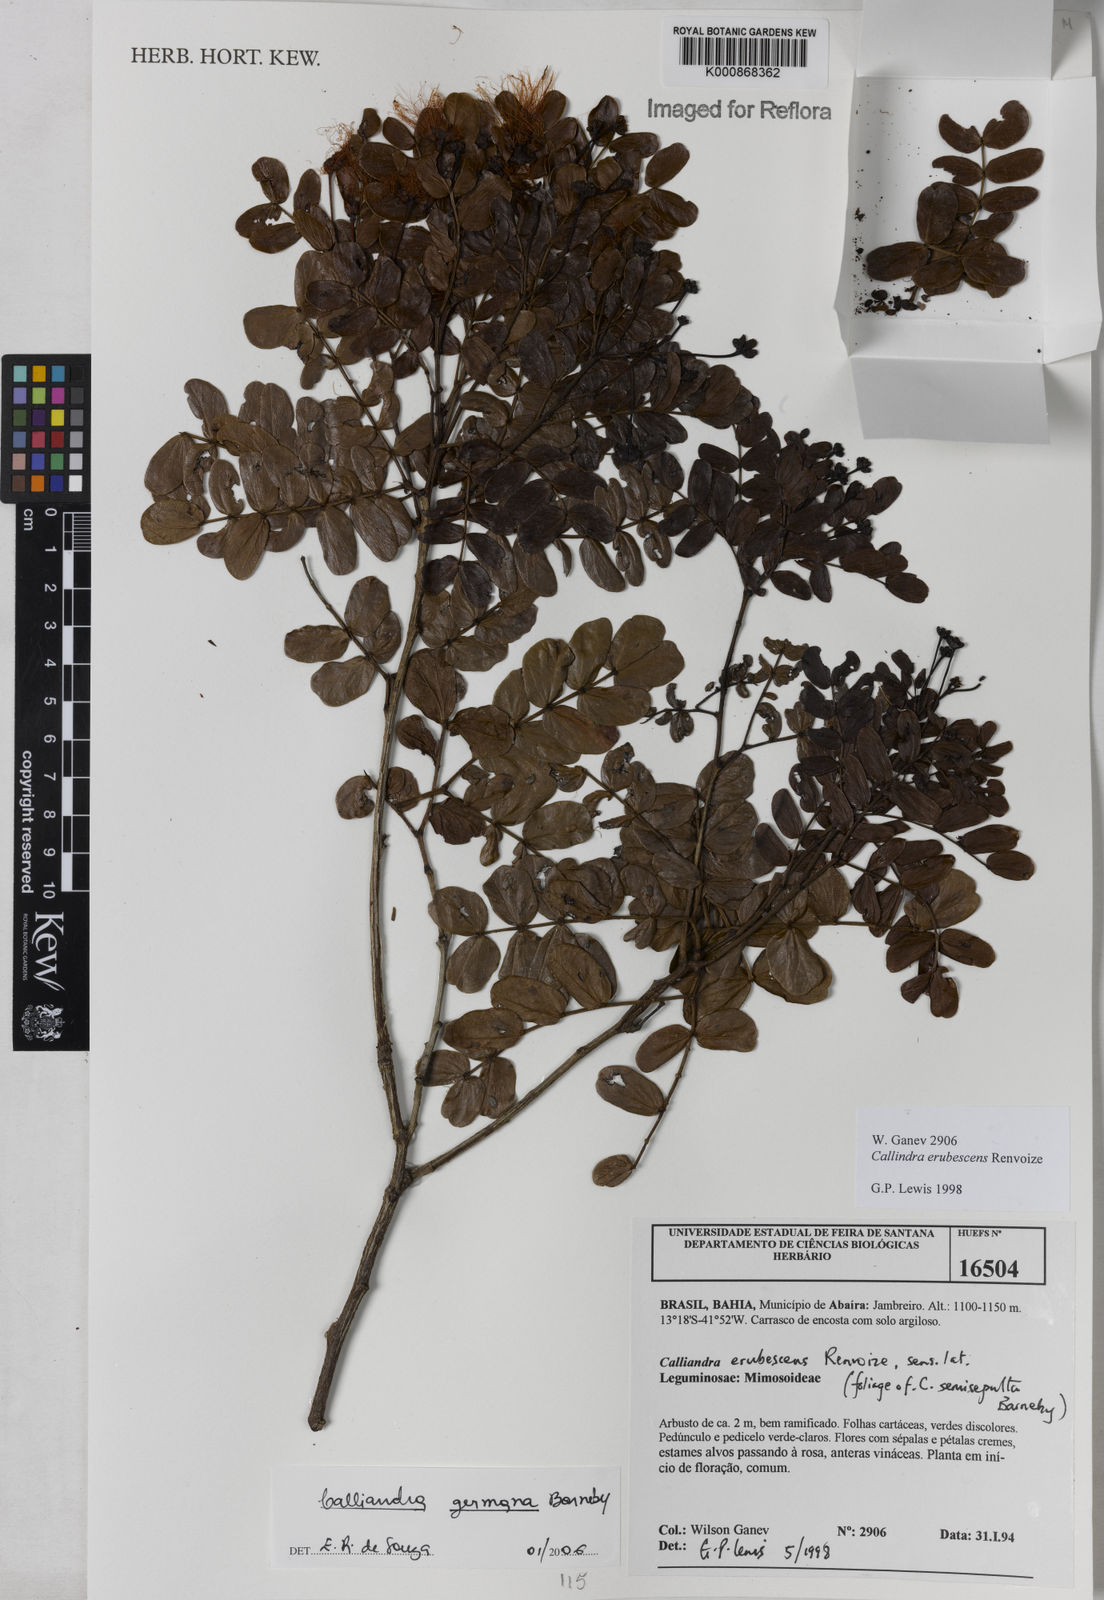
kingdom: Plantae
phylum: Tracheophyta
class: Magnoliopsida
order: Fabales
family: Fabaceae
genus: Calliandra
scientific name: Calliandra germana
